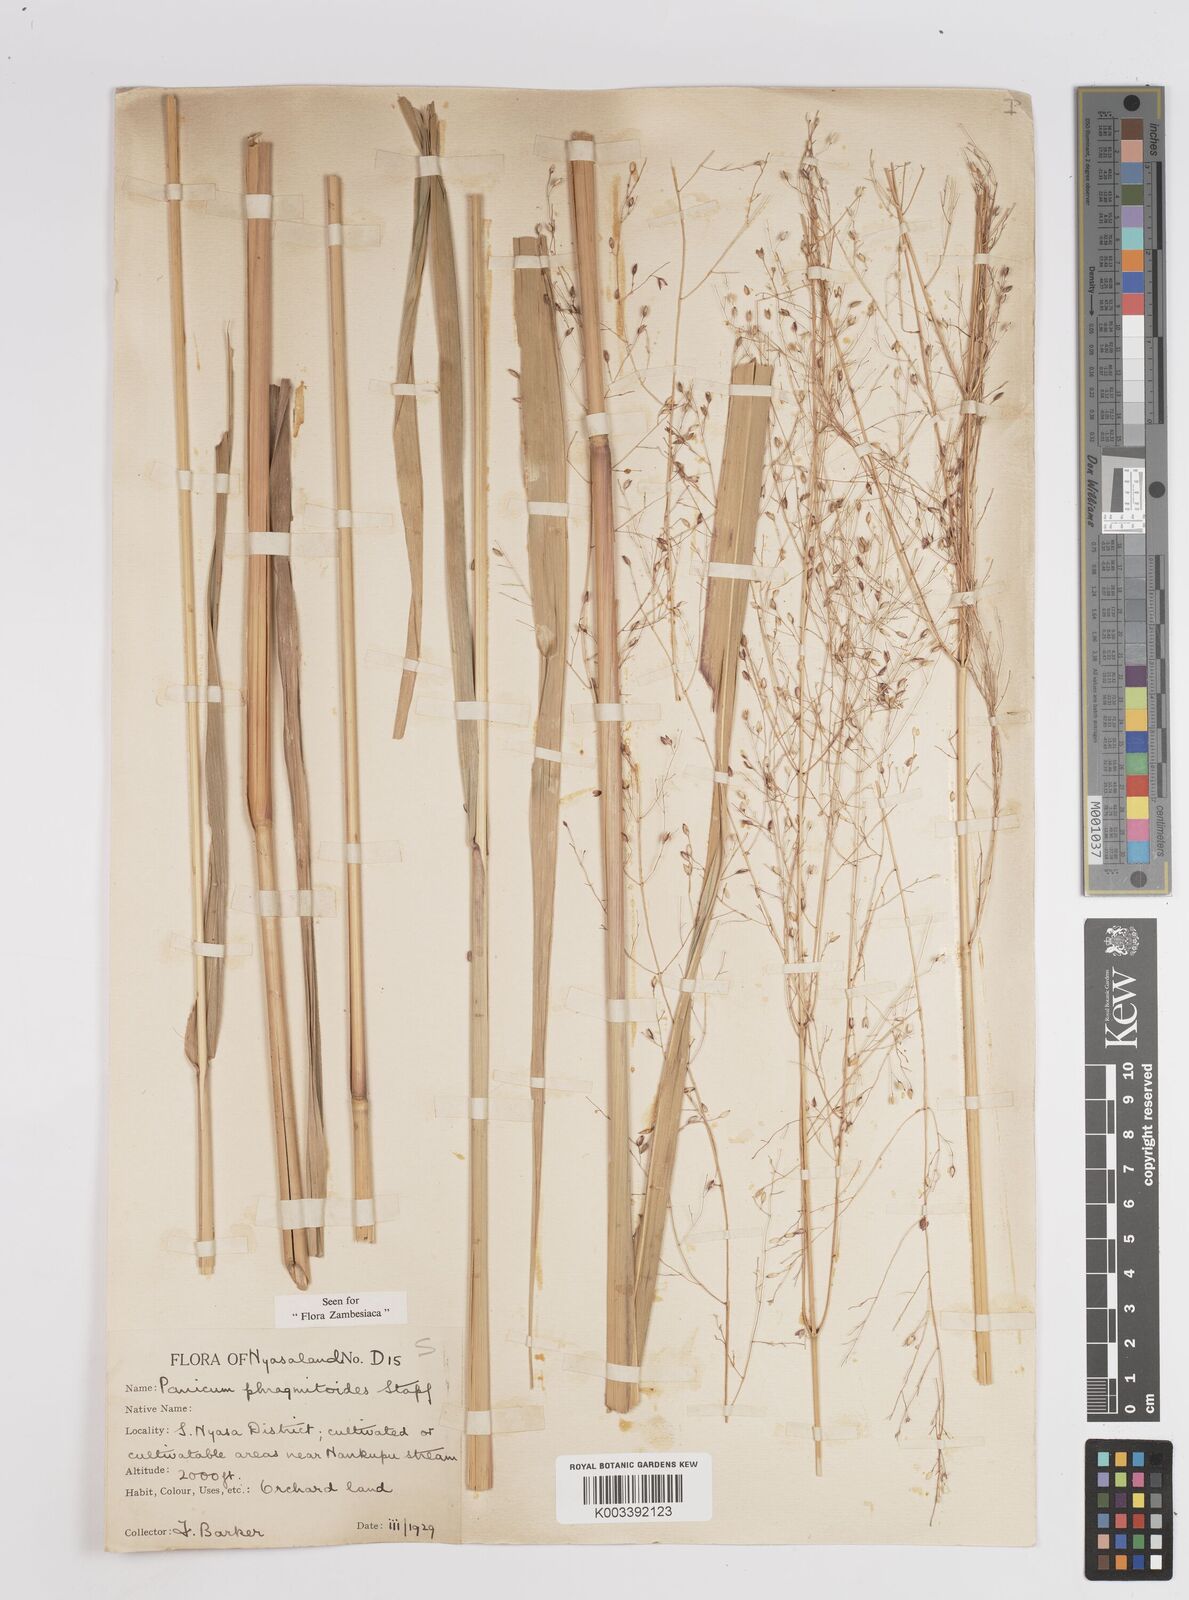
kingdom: Plantae
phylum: Tracheophyta
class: Liliopsida
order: Poales
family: Poaceae
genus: Panicum
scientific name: Panicum phragmitoides
